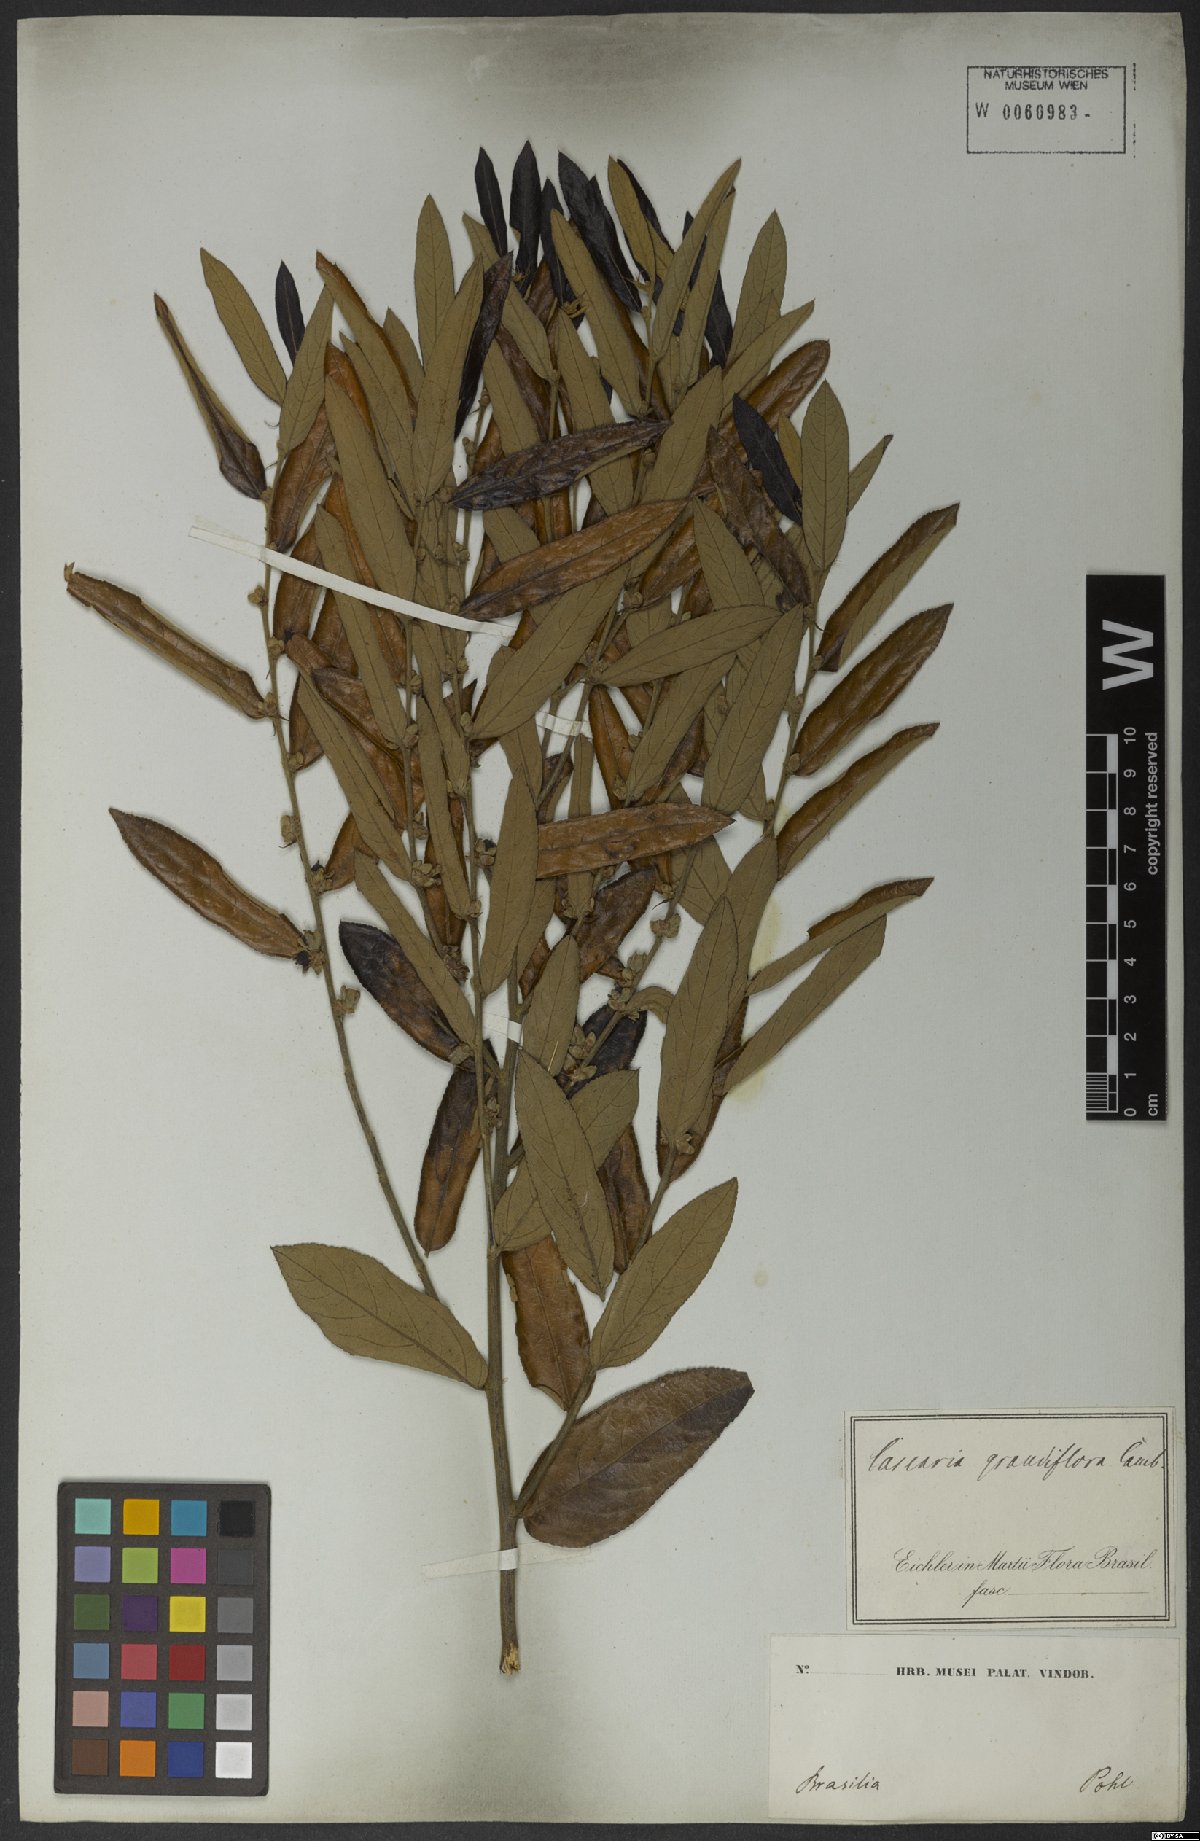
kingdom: Plantae
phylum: Tracheophyta
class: Magnoliopsida
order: Malpighiales
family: Salicaceae
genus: Casearia
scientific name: Casearia grandiflora
